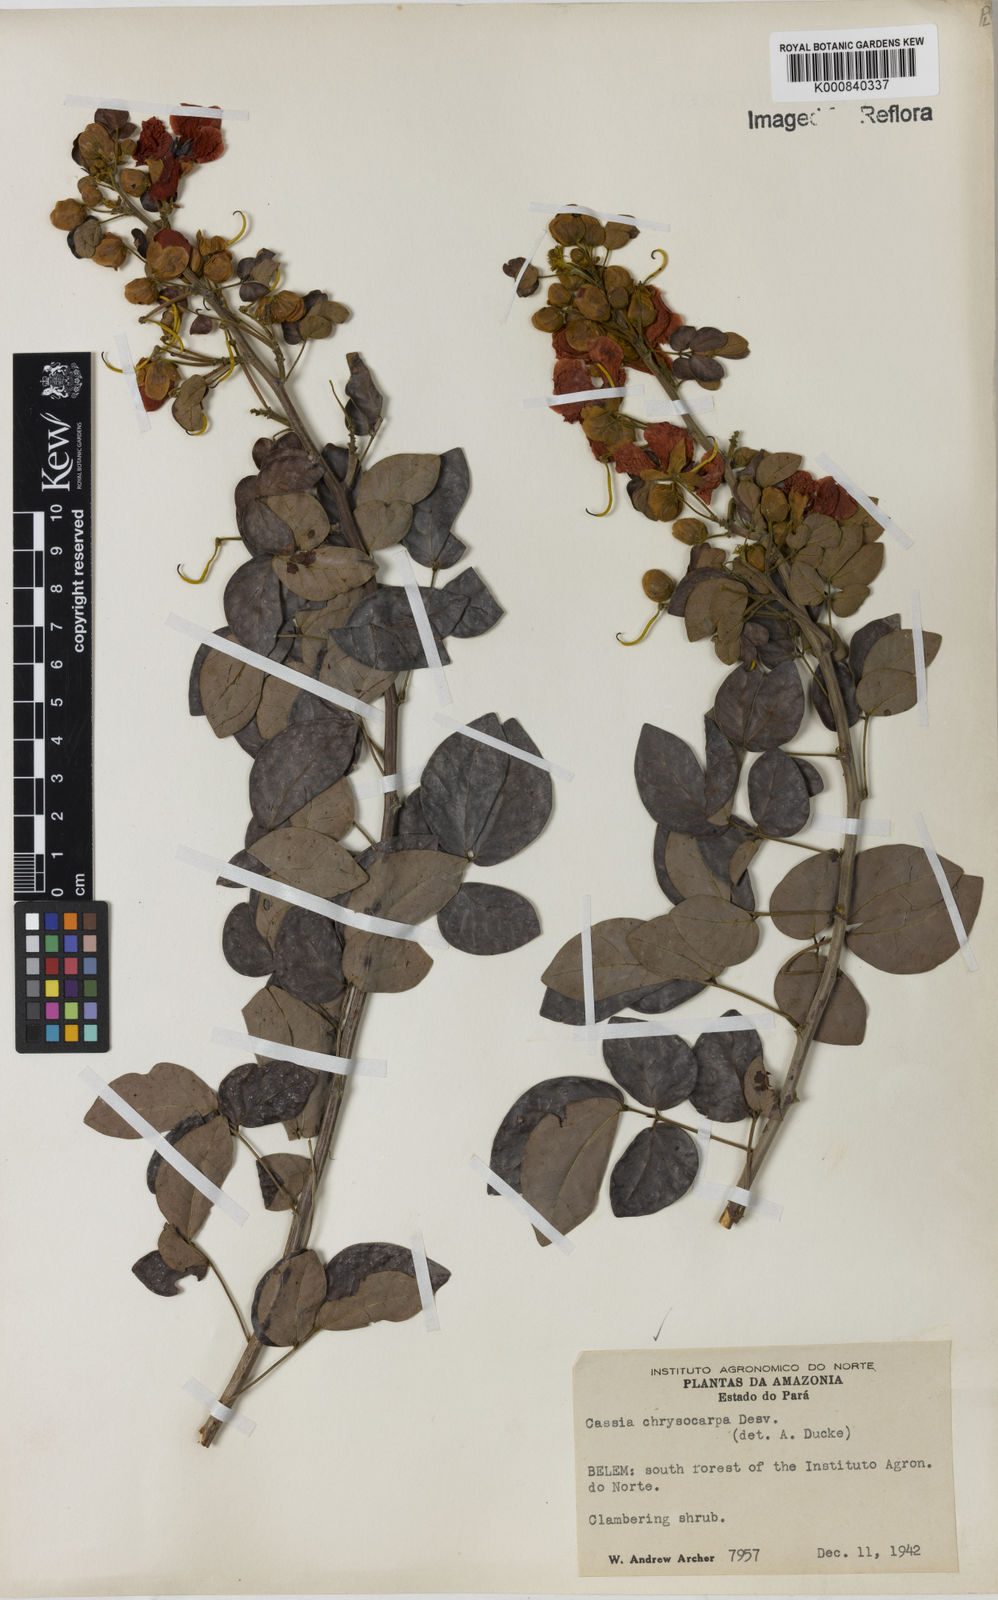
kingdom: Plantae
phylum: Tracheophyta
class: Magnoliopsida
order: Fabales
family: Fabaceae
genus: Senna
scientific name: Senna chrysocarpa
